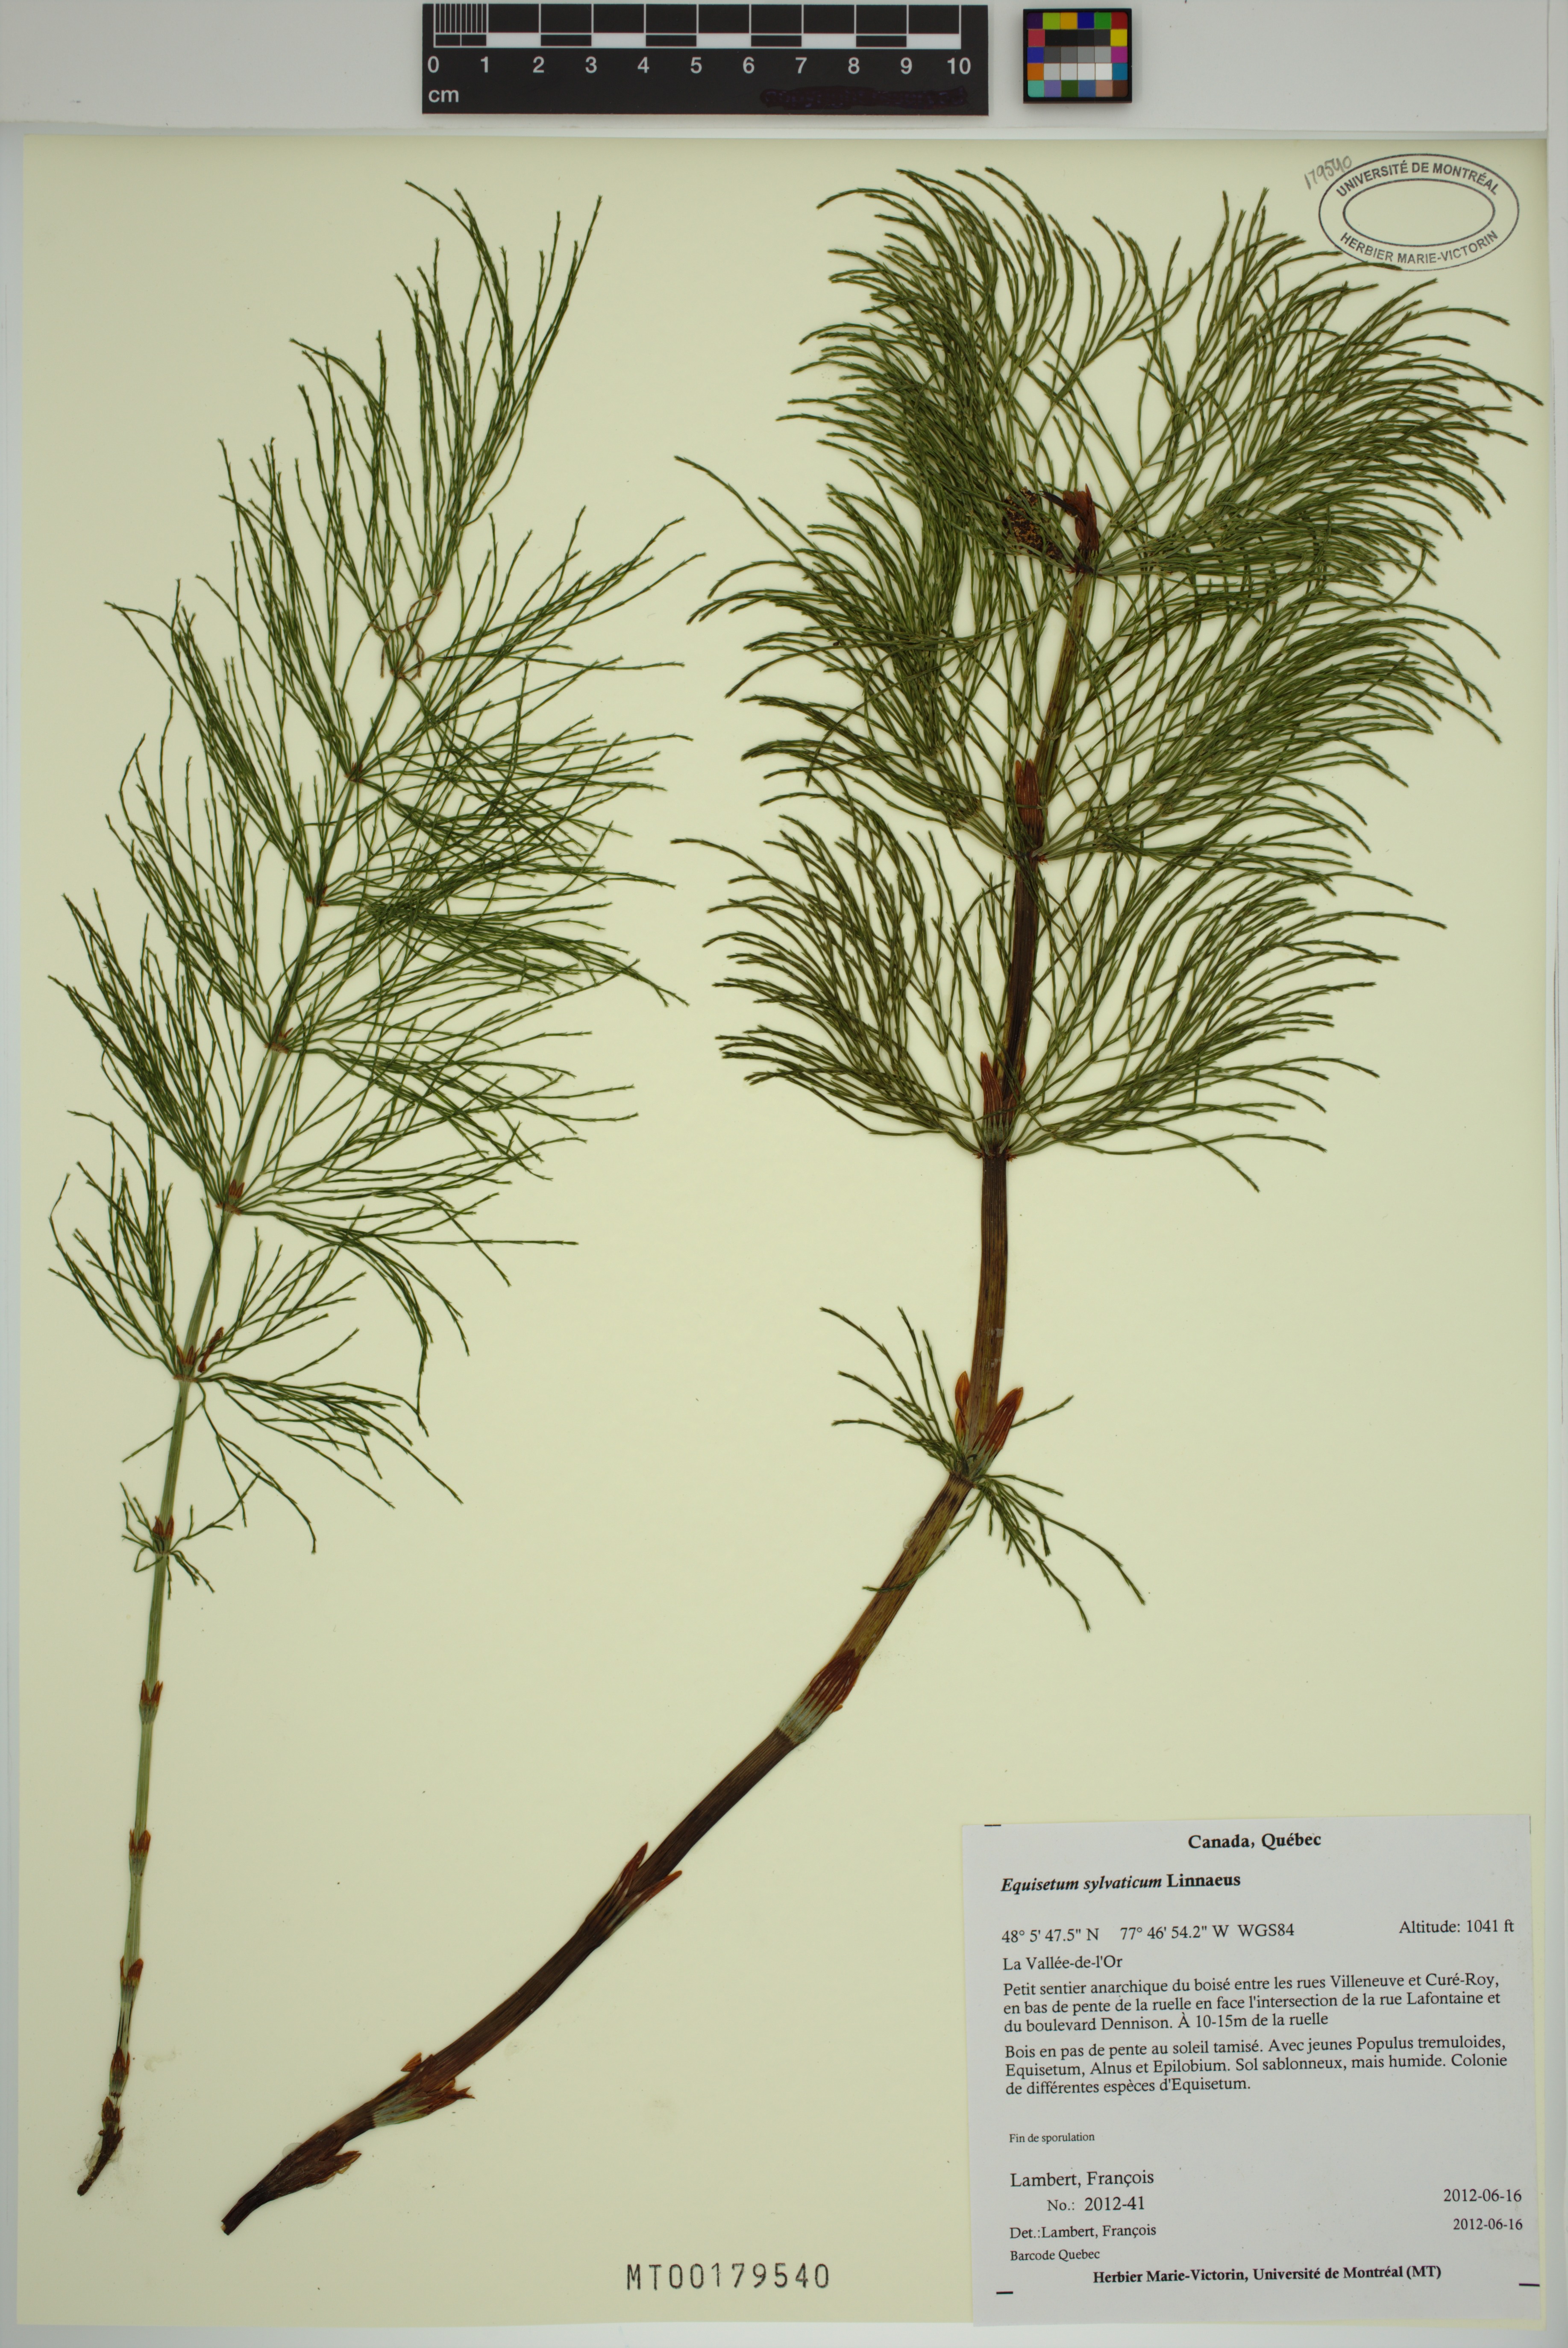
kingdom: Plantae
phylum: Tracheophyta
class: Polypodiopsida
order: Equisetales
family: Equisetaceae
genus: Equisetum
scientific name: Equisetum sylvaticum
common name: Wood horsetail
